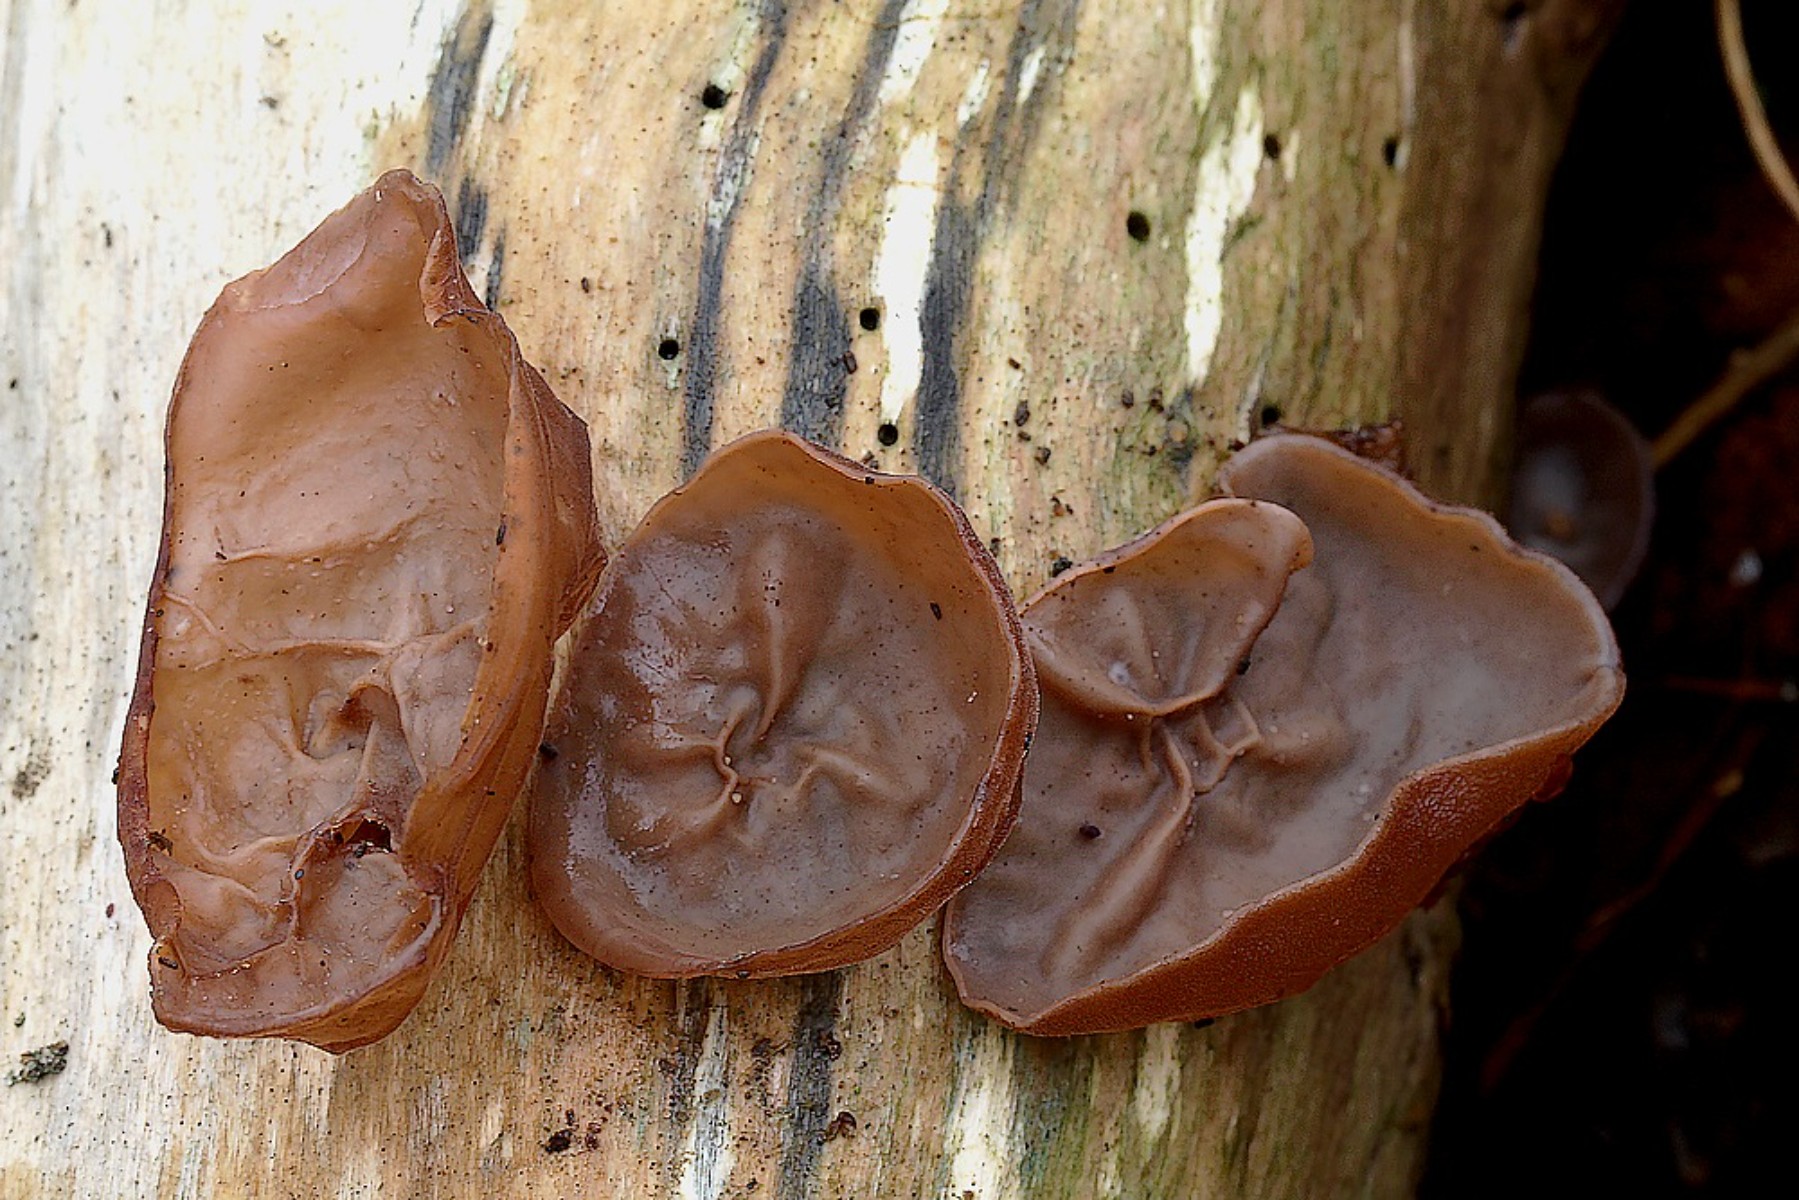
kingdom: Fungi
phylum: Basidiomycota
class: Agaricomycetes
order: Auriculariales
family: Auriculariaceae
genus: Auricularia
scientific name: Auricularia auricula-judae
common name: almindelig judasøre
